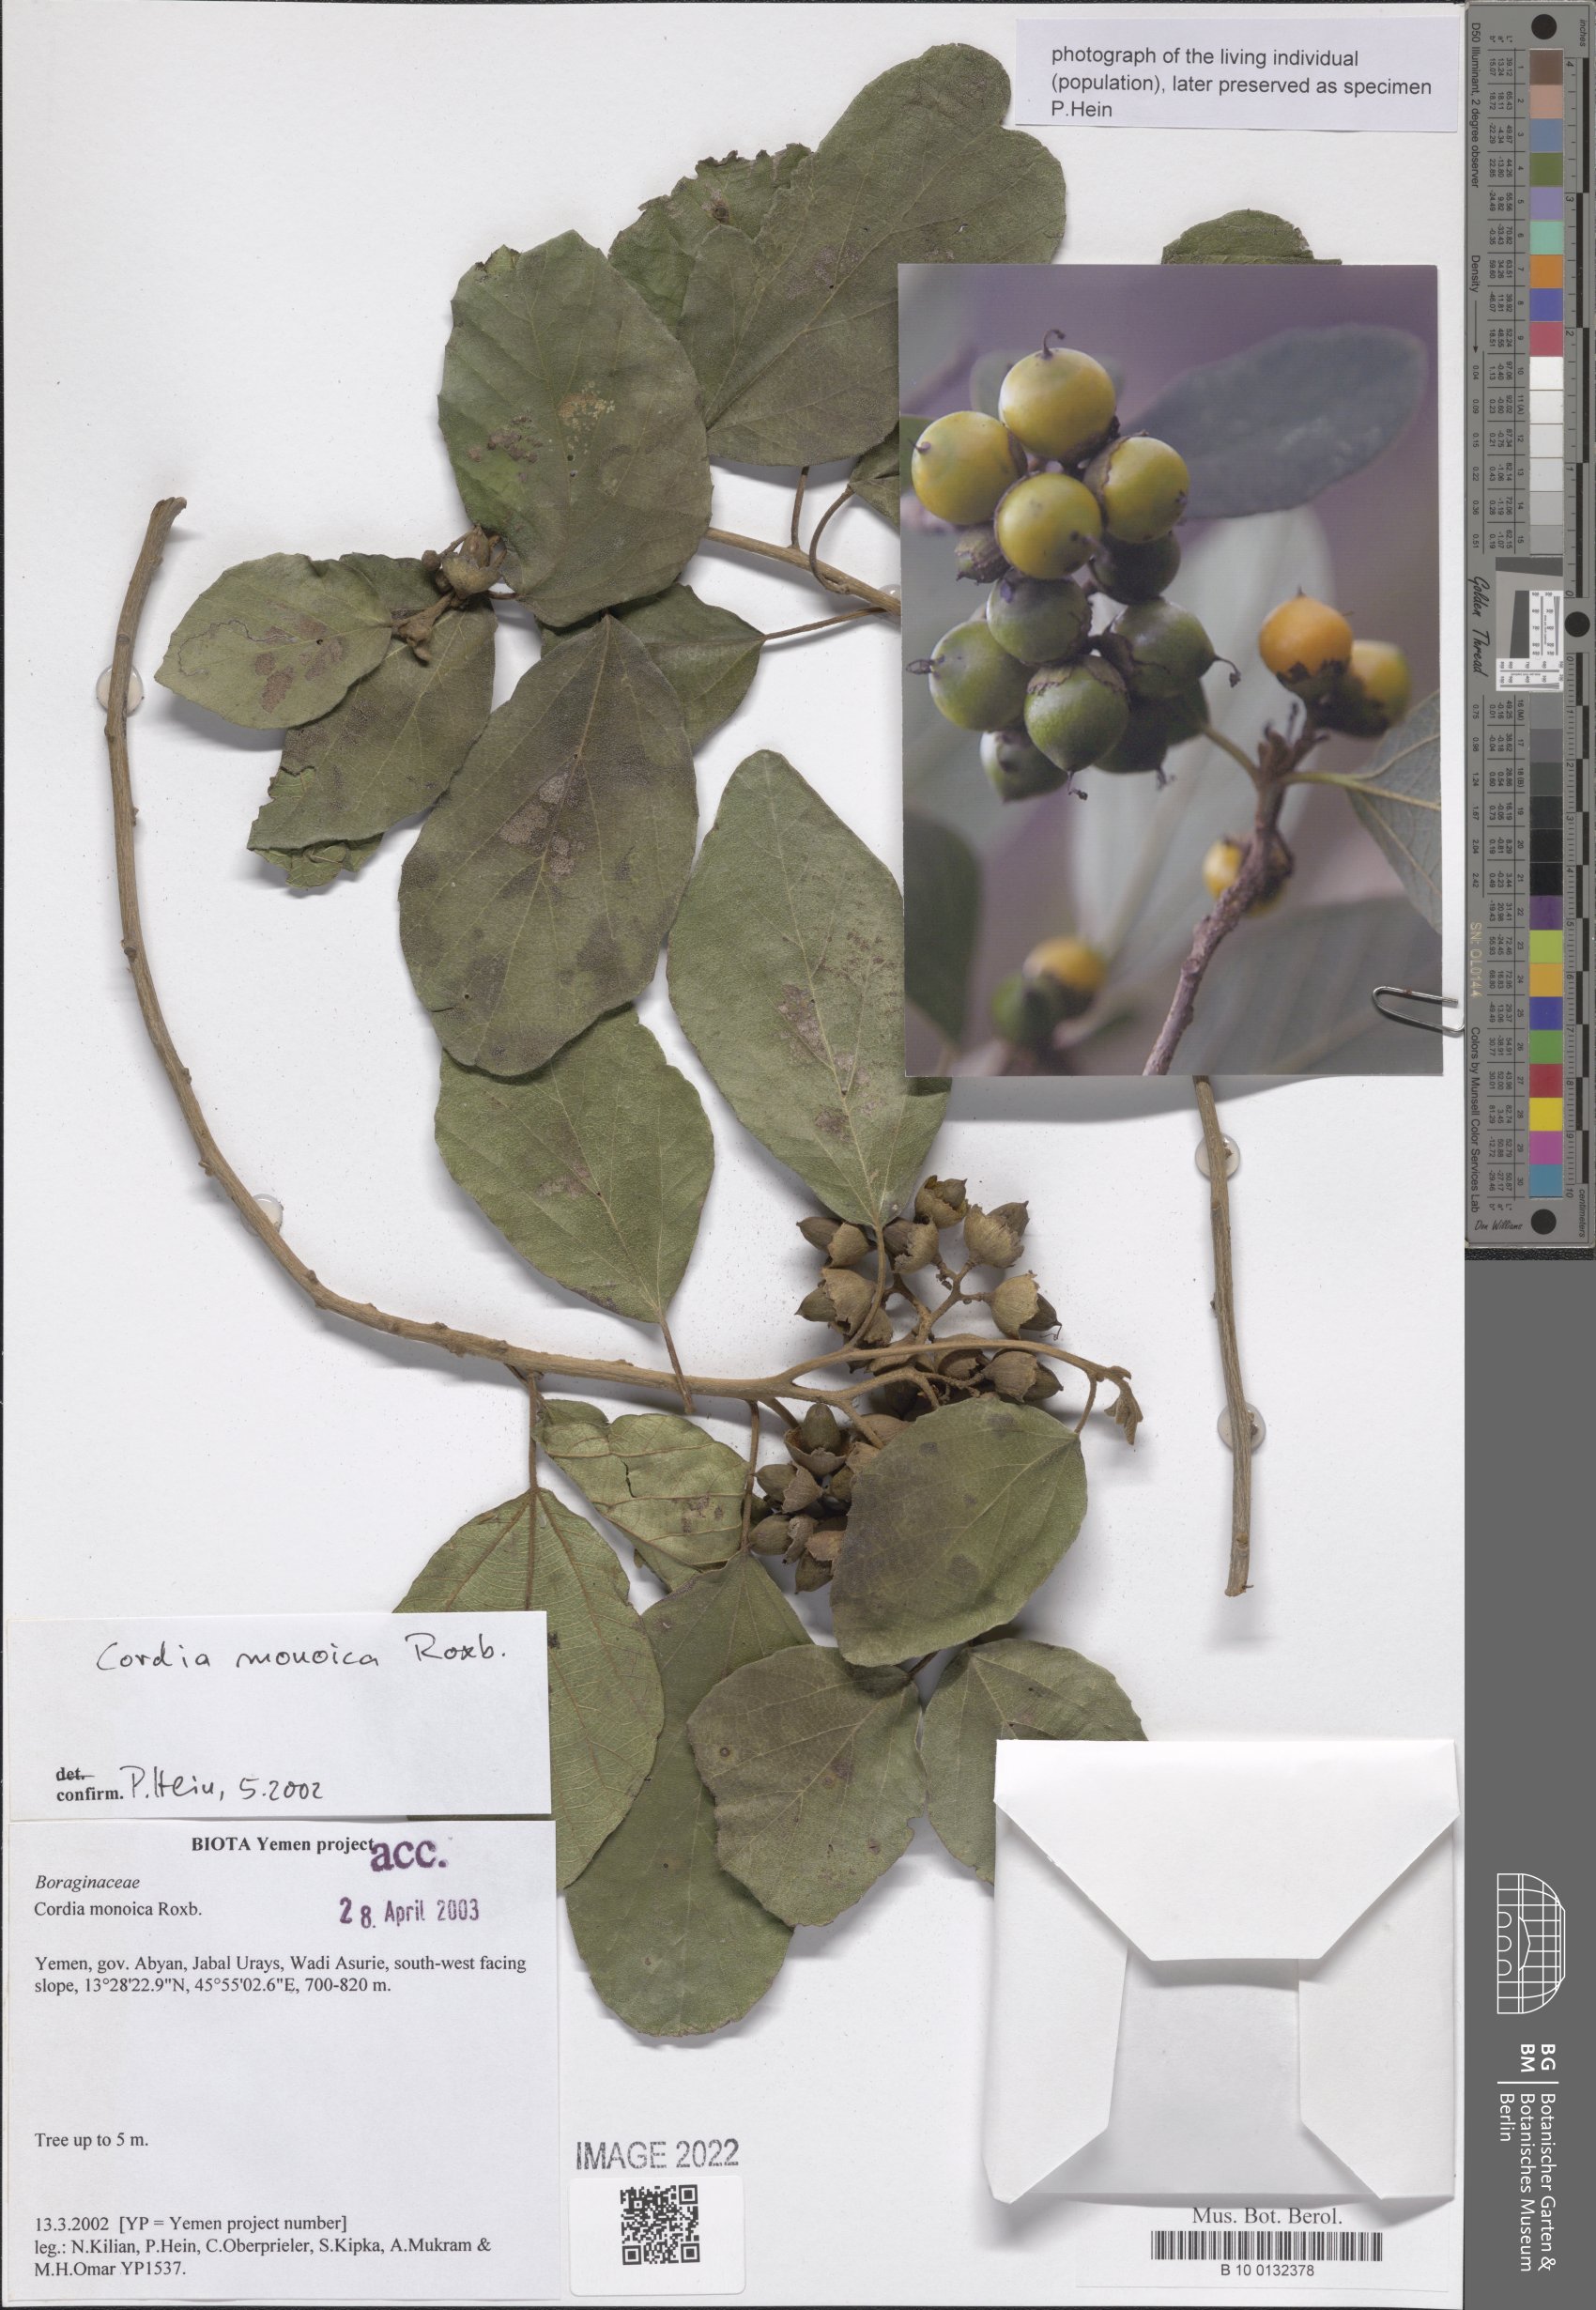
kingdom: Plantae
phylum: Tracheophyta
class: Magnoliopsida
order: Boraginales
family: Cordiaceae
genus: Cordia
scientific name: Cordia monoica
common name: Snot berry
